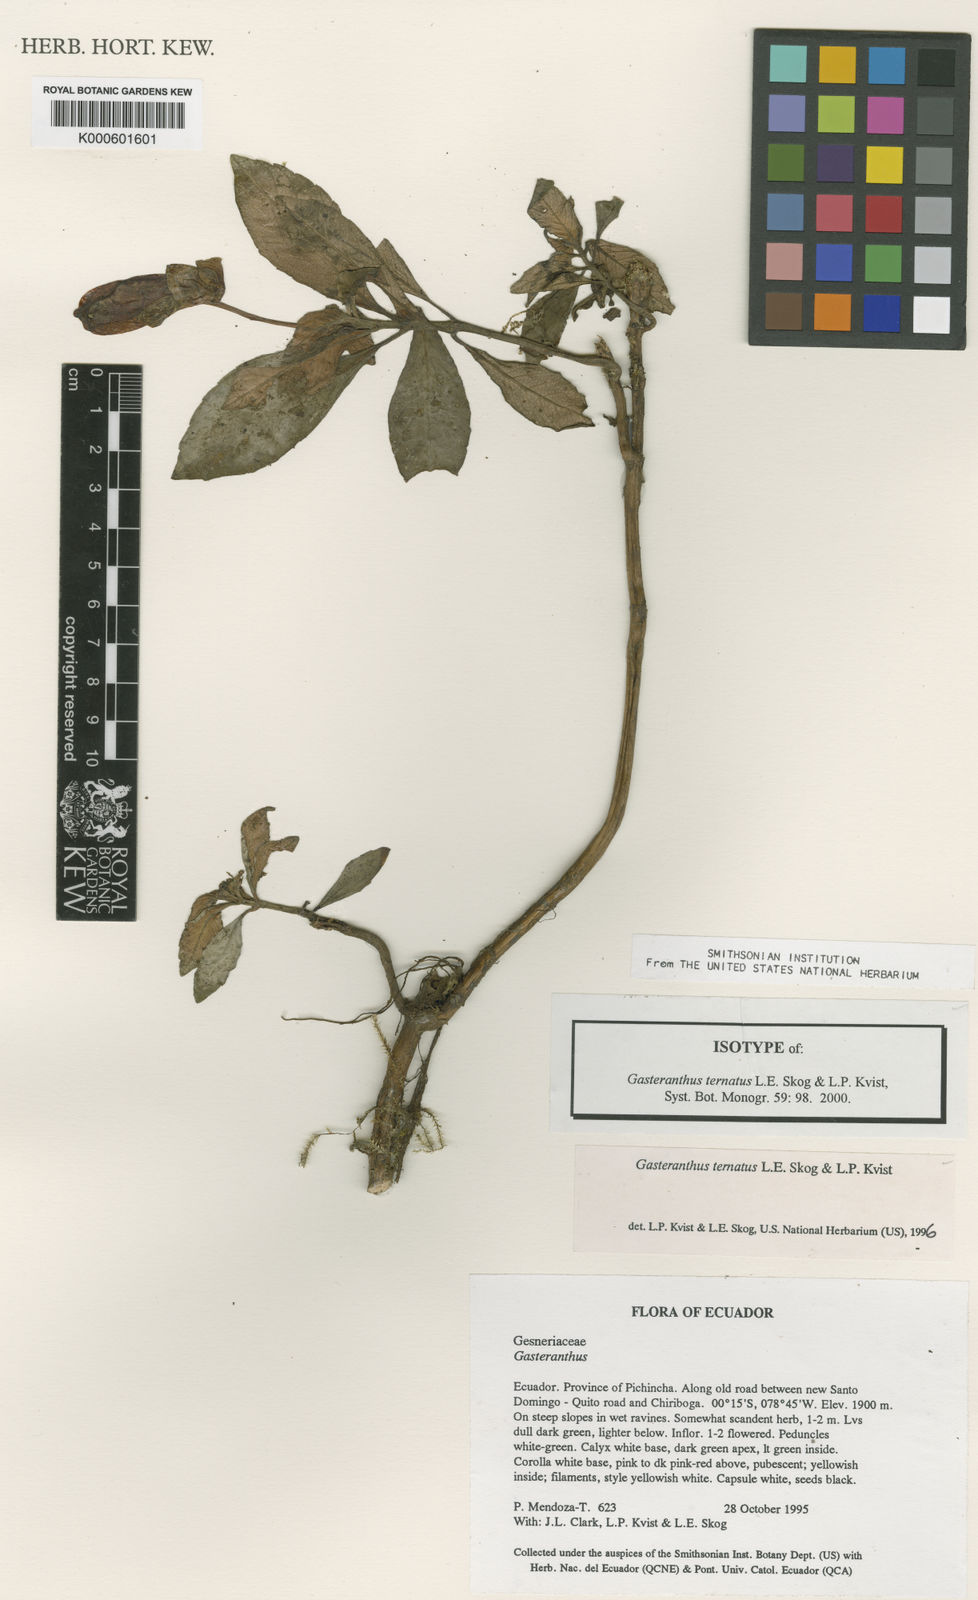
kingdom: Plantae
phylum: Tracheophyta
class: Magnoliopsida
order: Lamiales
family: Gesneriaceae
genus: Gasteranthus
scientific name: Gasteranthus ternatus
